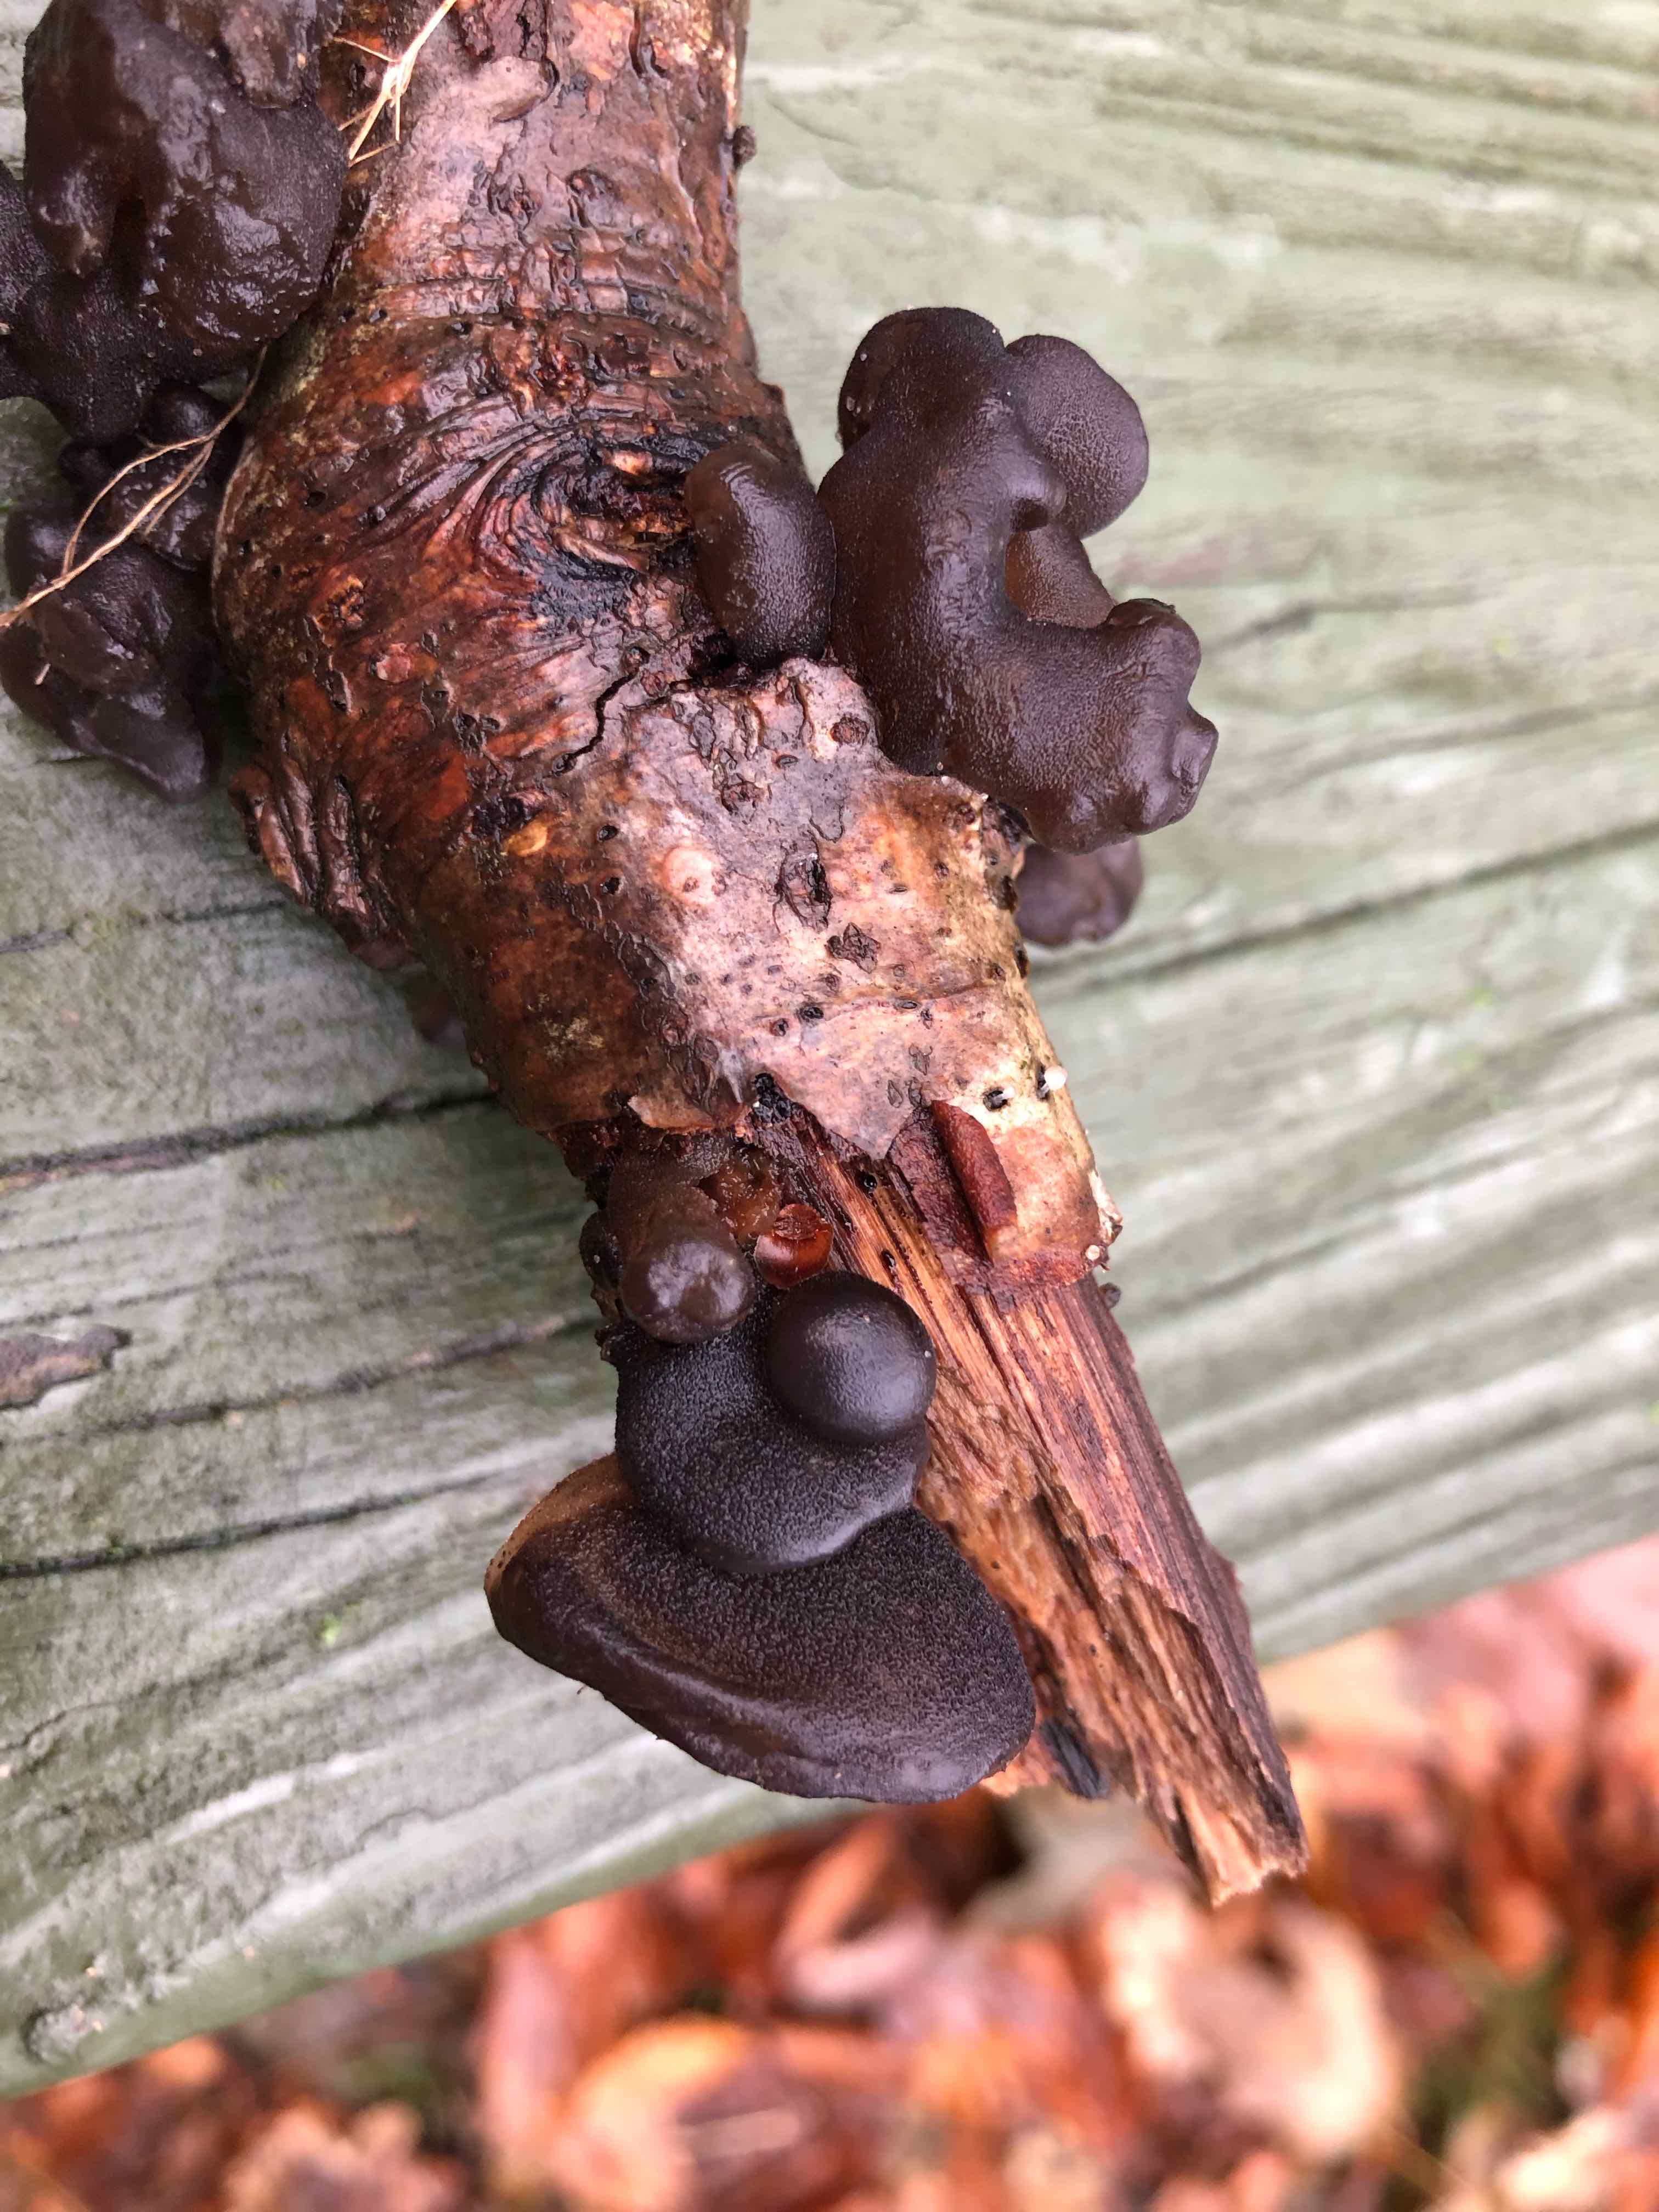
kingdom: Fungi
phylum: Basidiomycota
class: Agaricomycetes
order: Auriculariales
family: Auriculariaceae
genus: Exidia
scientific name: Exidia glandulosa
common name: ege-bævretop
